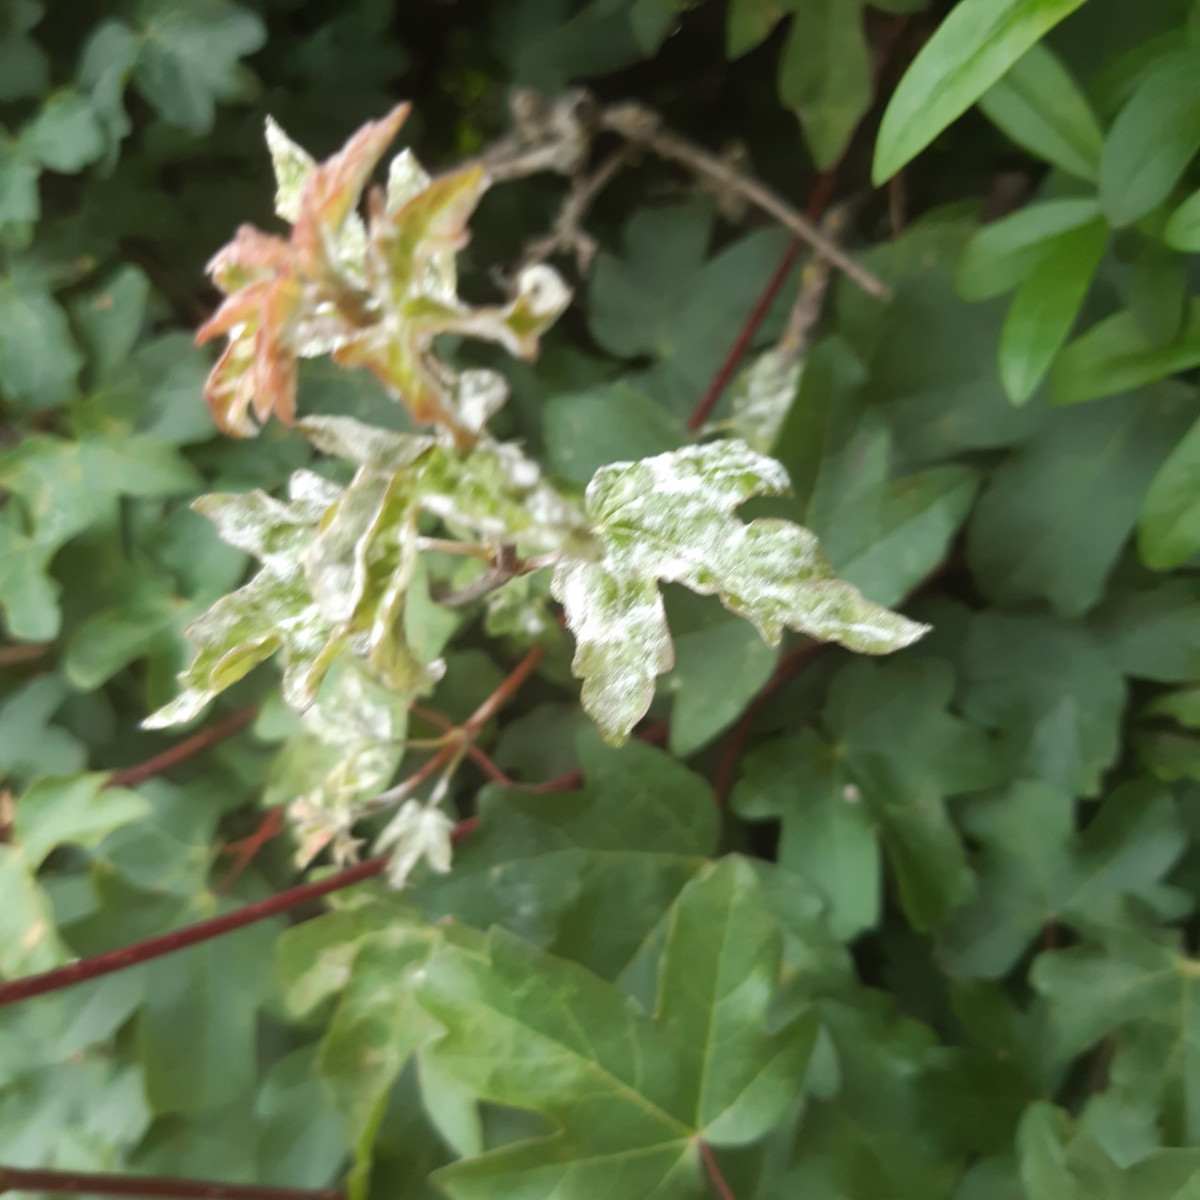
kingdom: Fungi
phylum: Ascomycota
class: Leotiomycetes
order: Helotiales
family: Erysiphaceae
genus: Sawadaea
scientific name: Sawadaea bicornis
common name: Maple mildew
